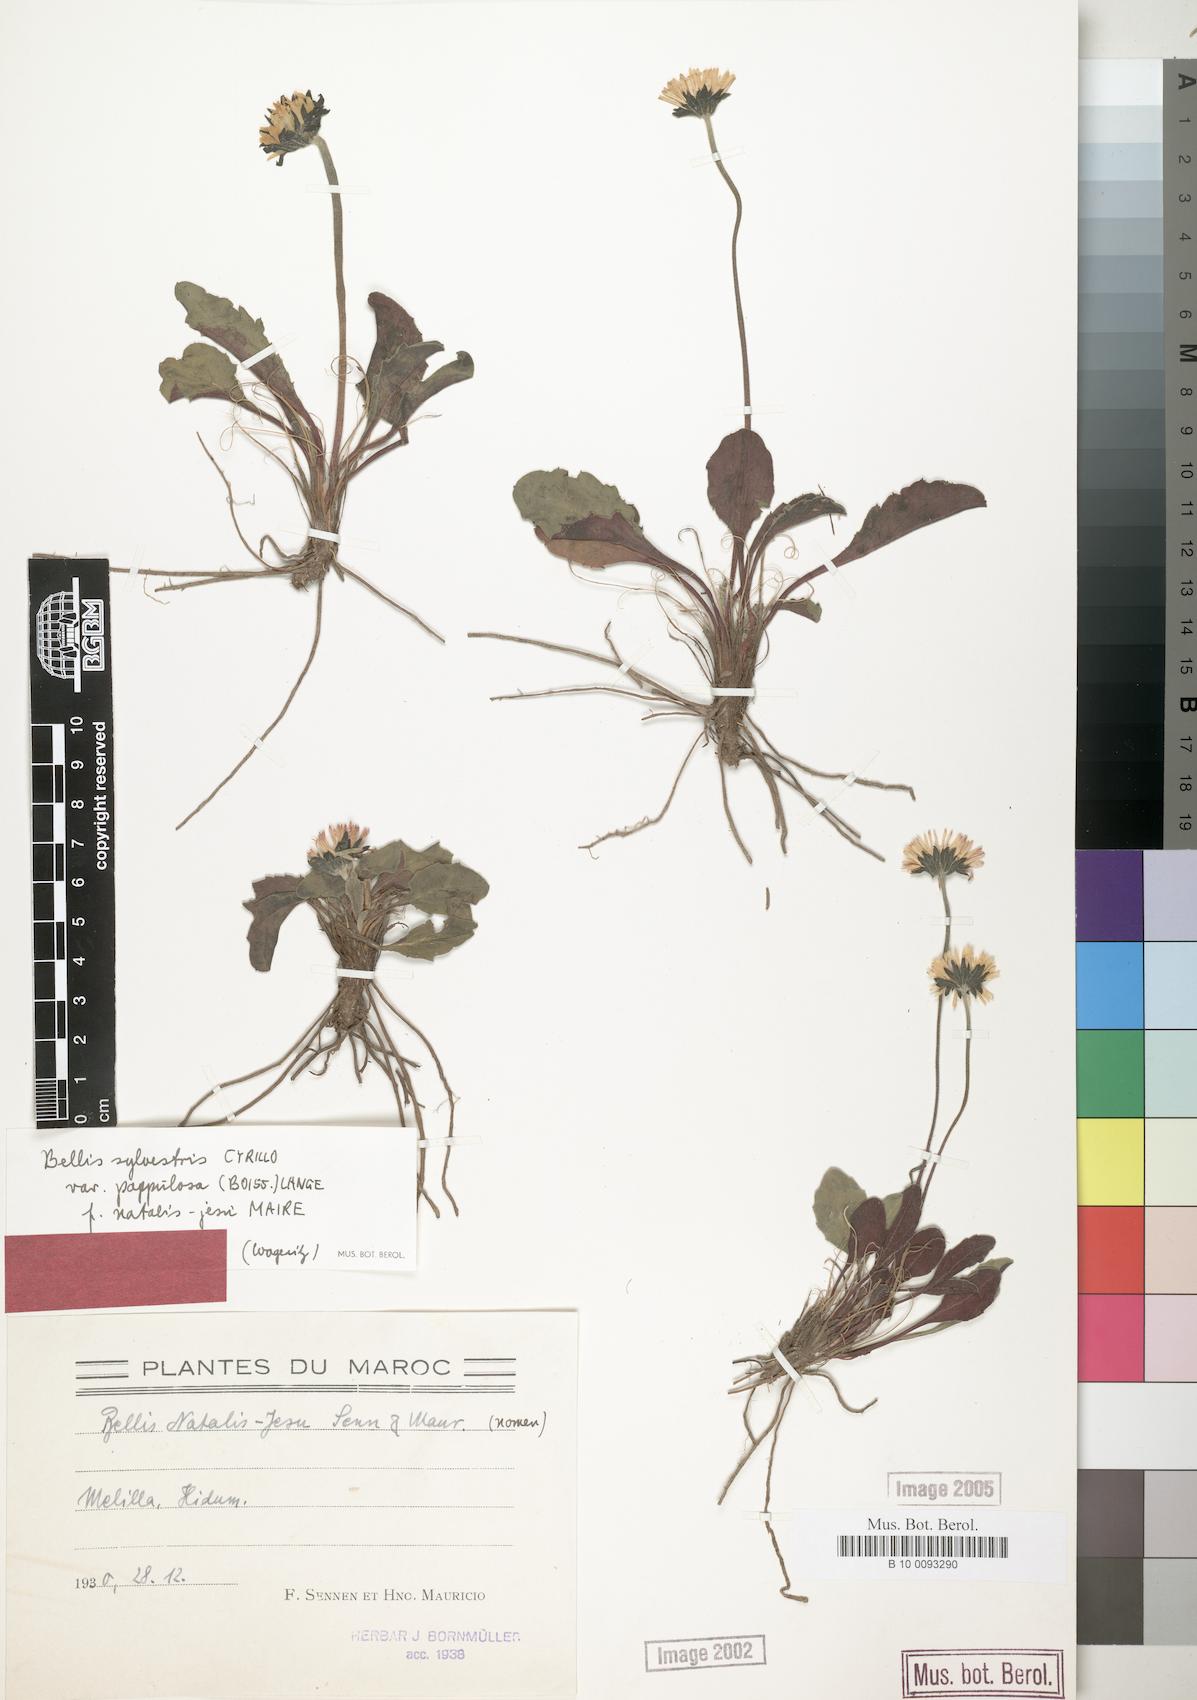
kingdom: Plantae
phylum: Tracheophyta
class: Magnoliopsida
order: Asterales
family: Asteraceae
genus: Bellis
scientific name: Bellis sylvestris
